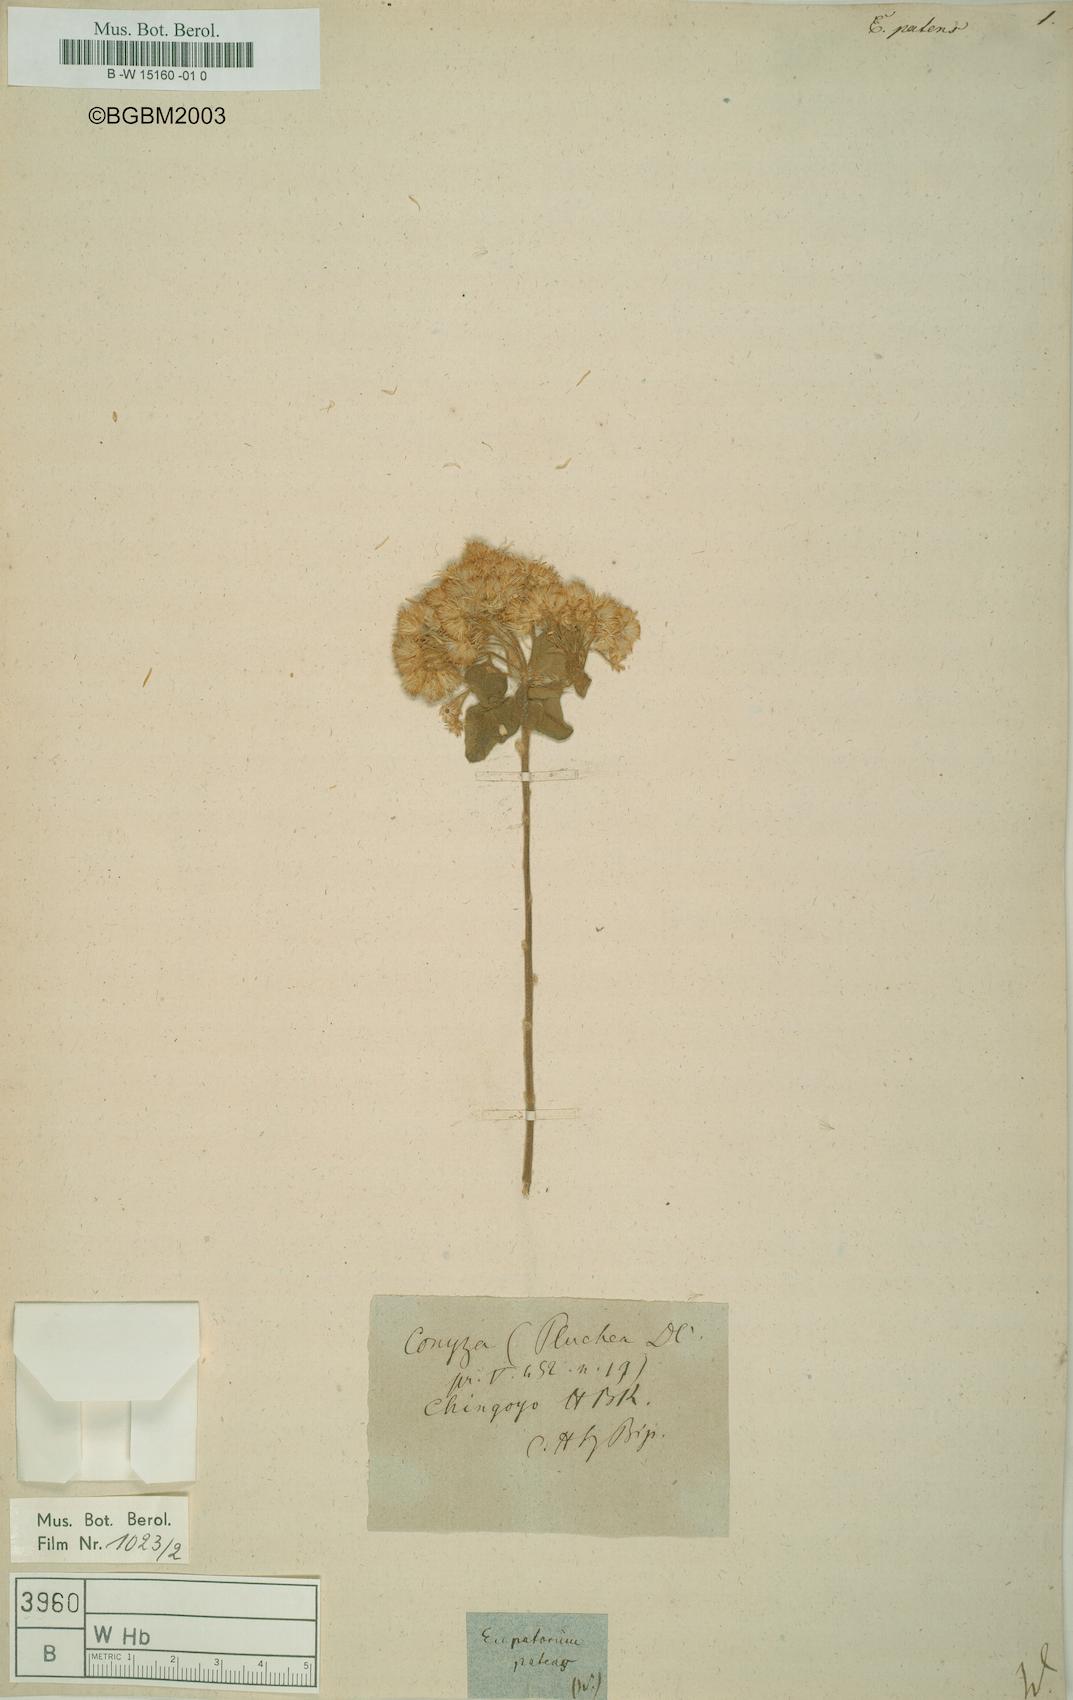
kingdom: Plantae
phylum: Tracheophyta
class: Magnoliopsida
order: Asterales
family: Asteraceae
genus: Austrobrickellia
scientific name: Austrobrickellia patens
